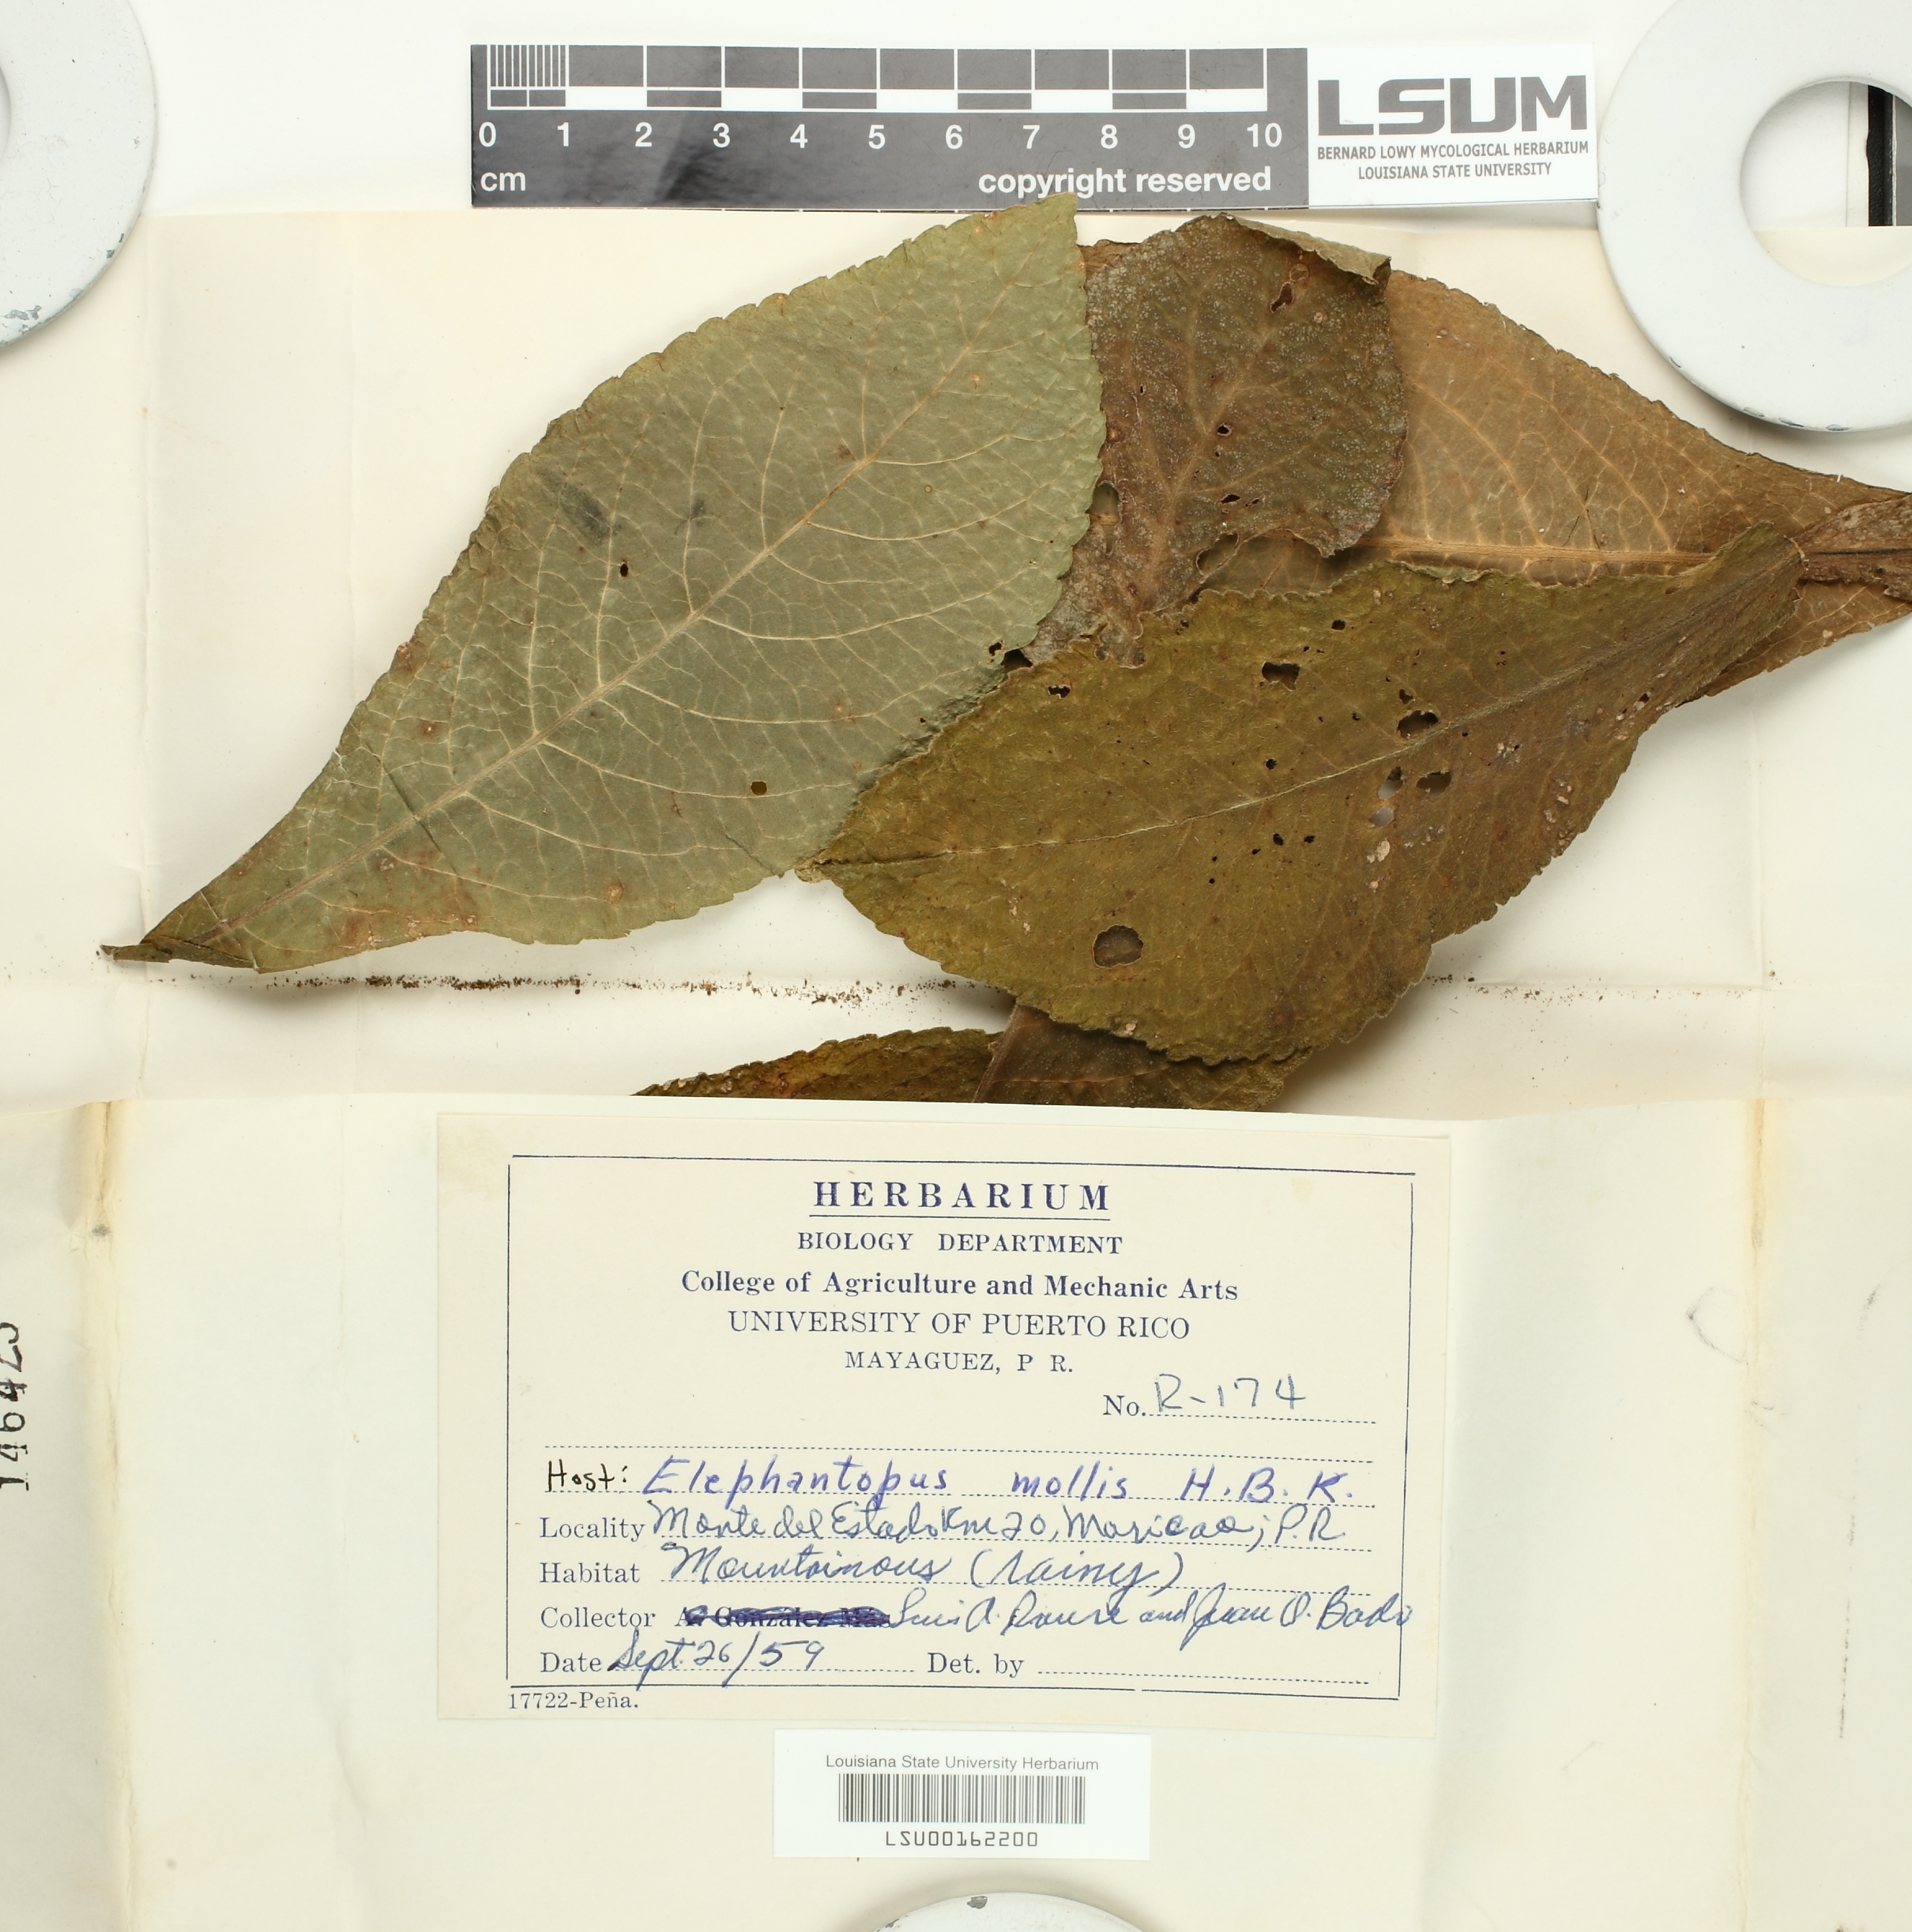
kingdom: Fungi
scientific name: Fungi
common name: Fungi
